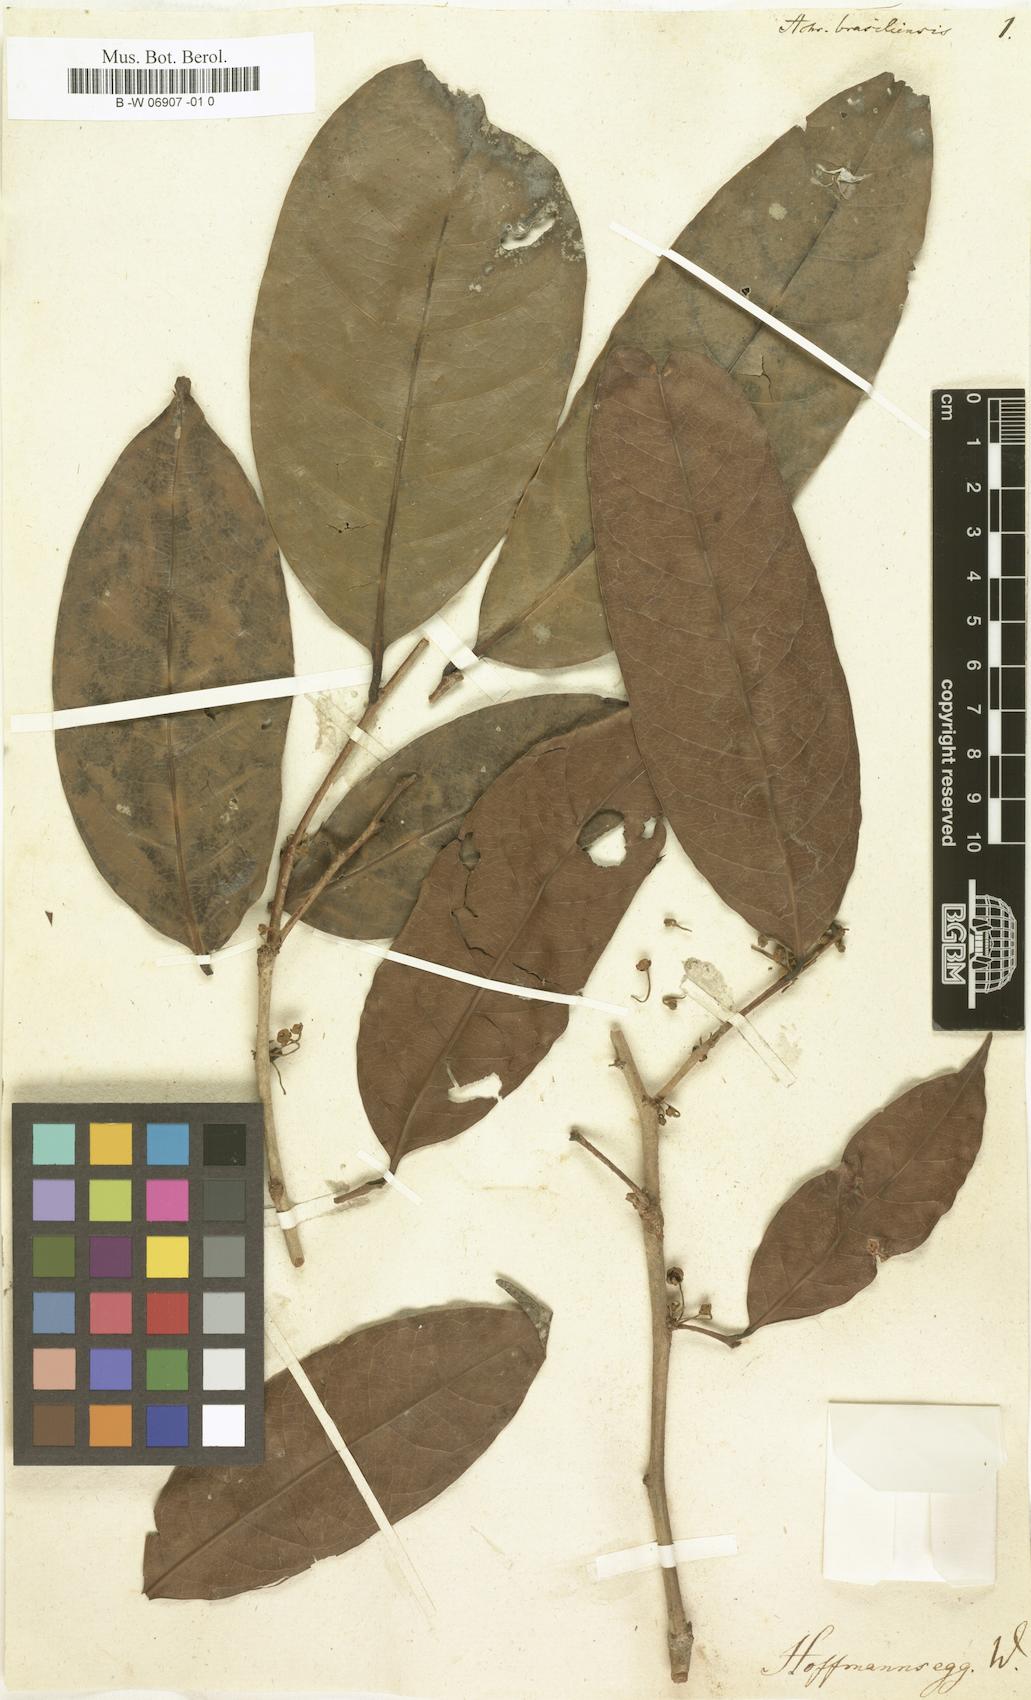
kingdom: Plantae
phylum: Tracheophyta
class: Magnoliopsida
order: Ericales
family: Sapotaceae
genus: Sarcaulus
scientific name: Sarcaulus brasiliensis
